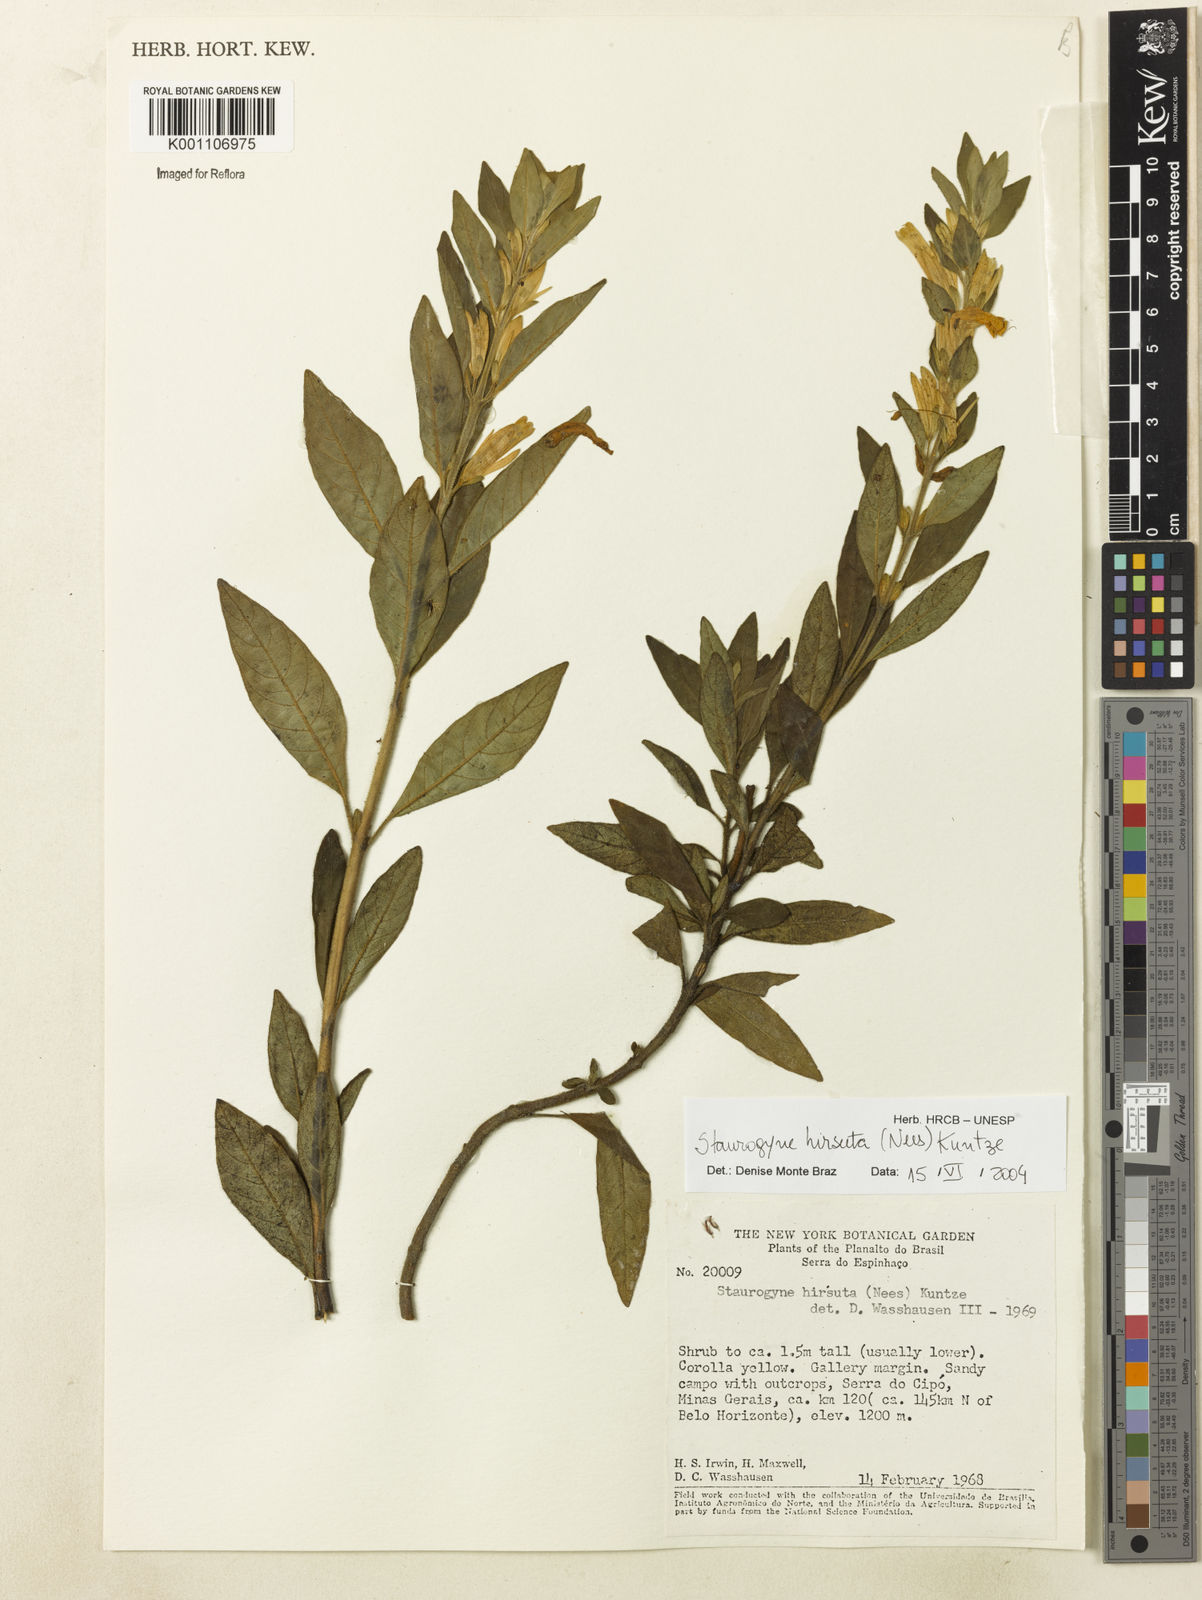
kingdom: Plantae
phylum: Tracheophyta
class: Magnoliopsida
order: Lamiales
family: Acanthaceae
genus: Staurogyne
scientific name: Staurogyne hirsuta
